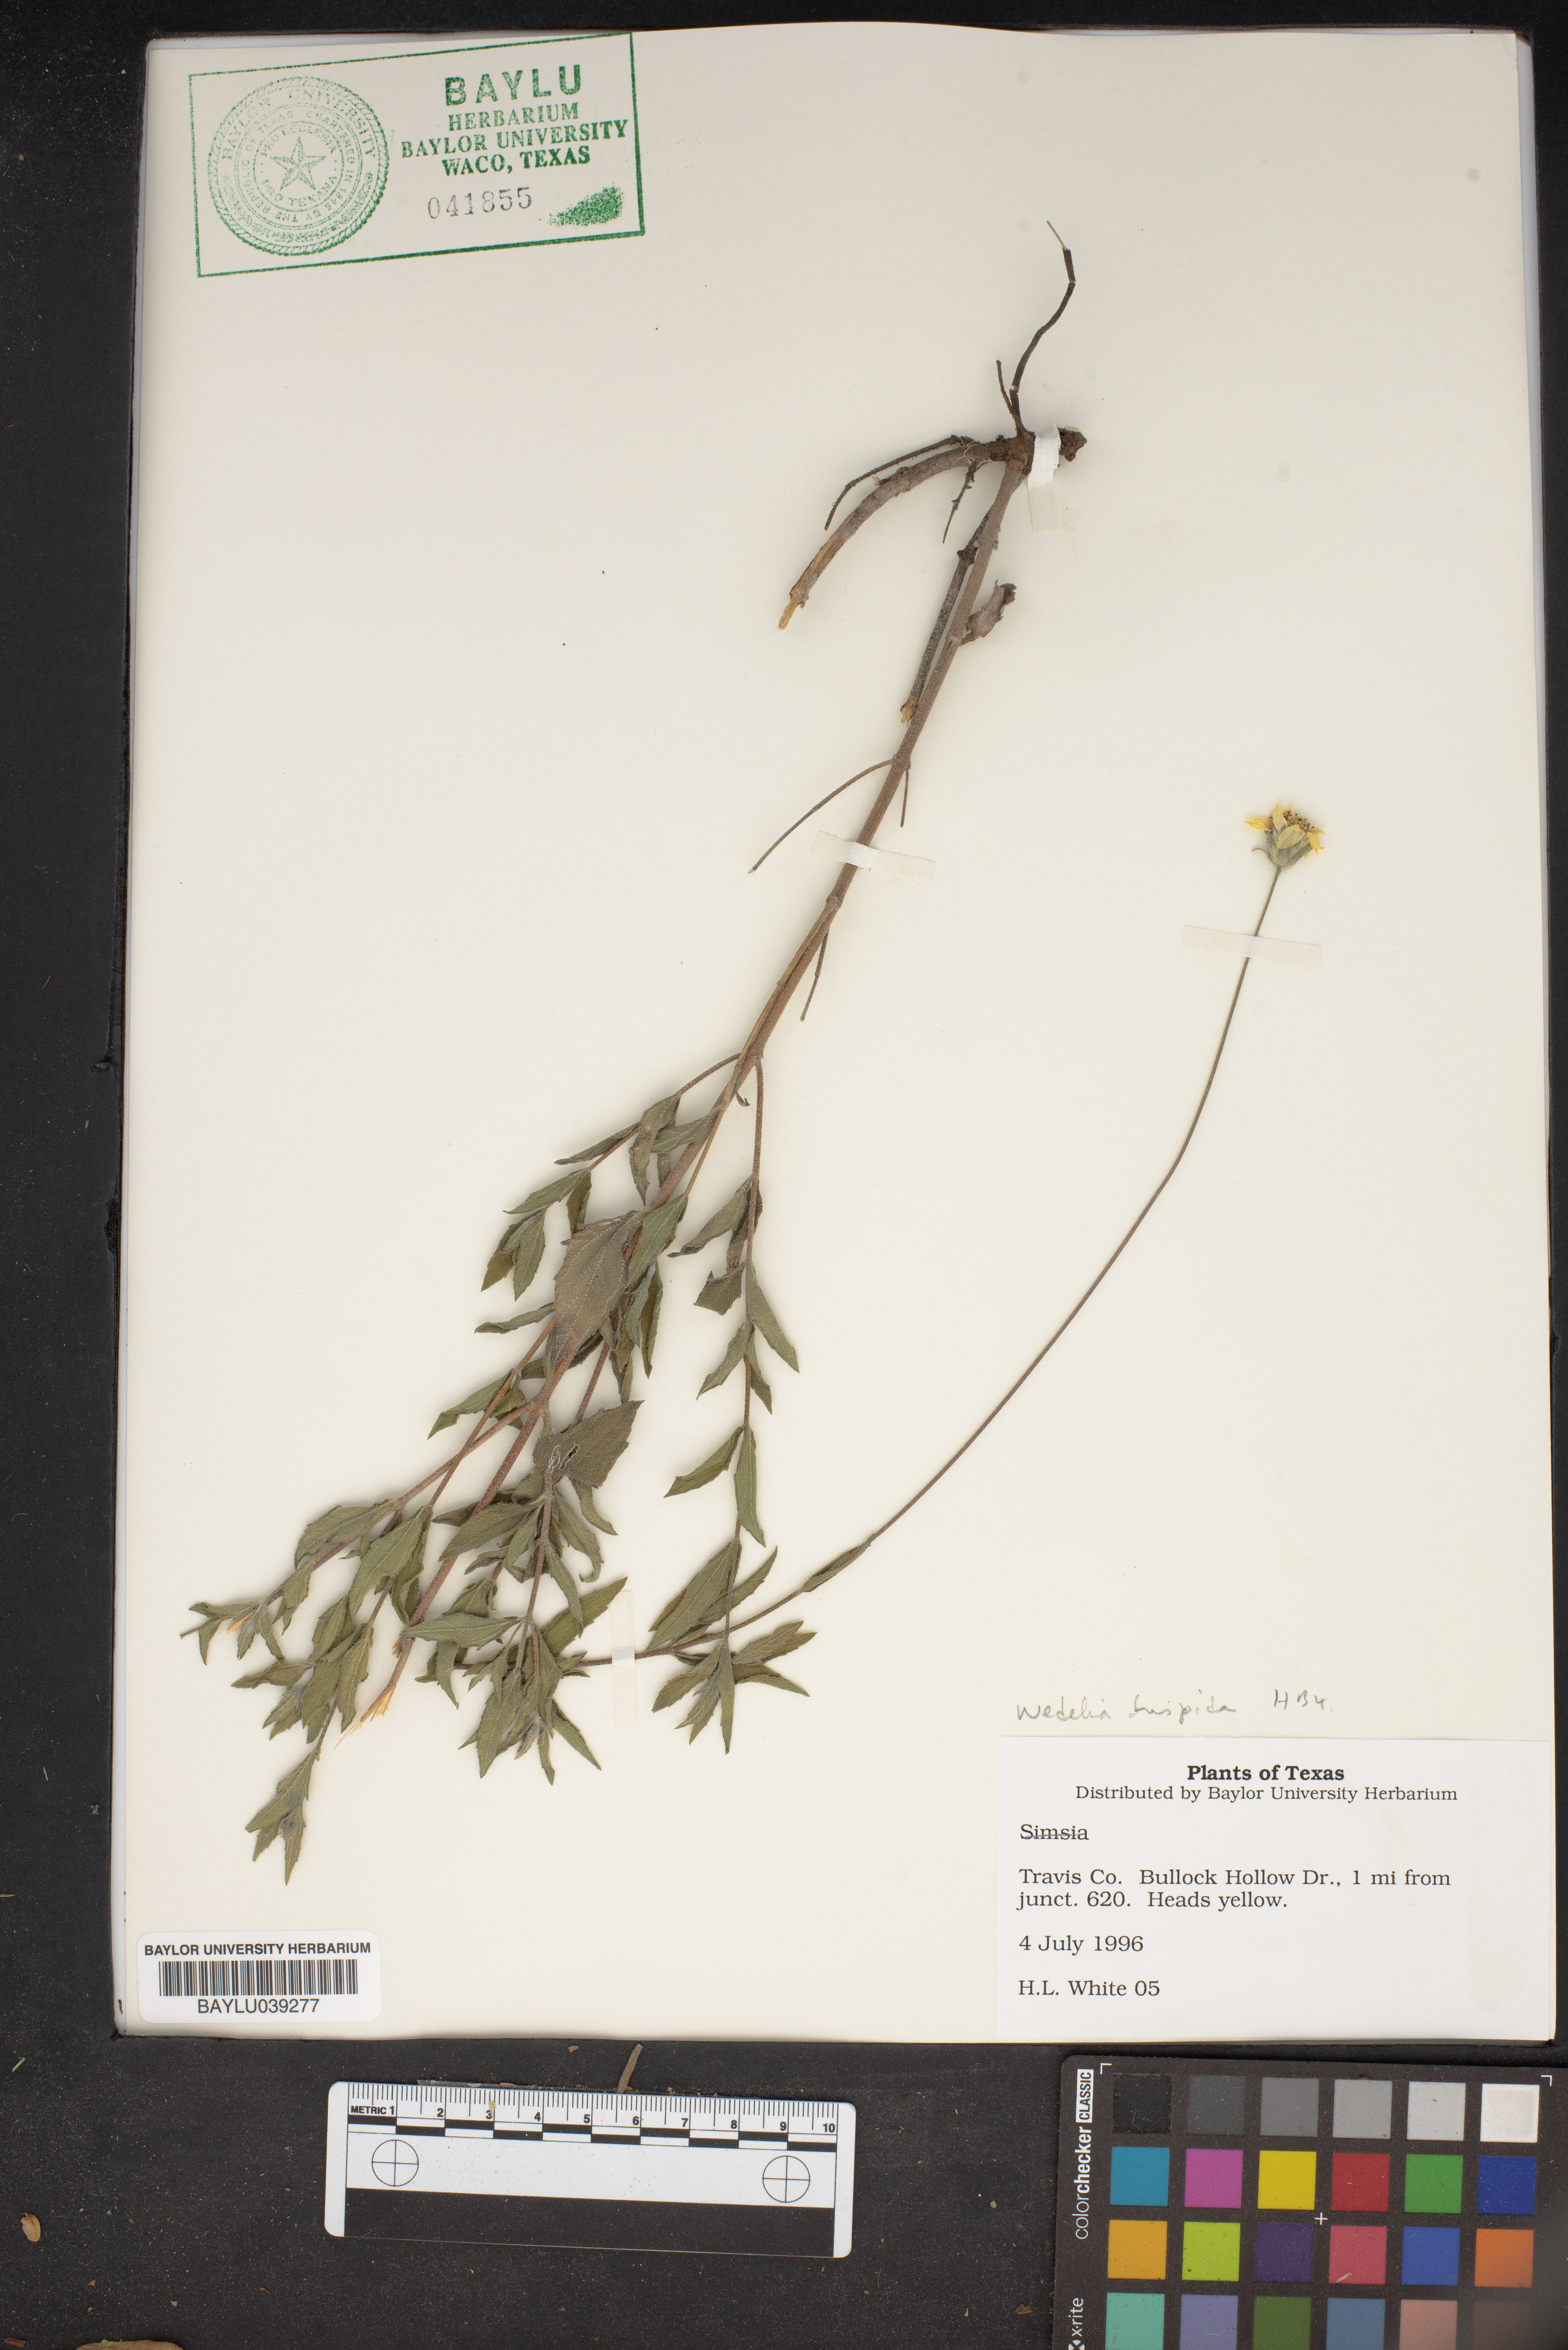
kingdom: Plantae
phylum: Tracheophyta
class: Magnoliopsida
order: Asterales
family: Asteraceae
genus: Wedelia
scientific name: Wedelia acapulcensis
